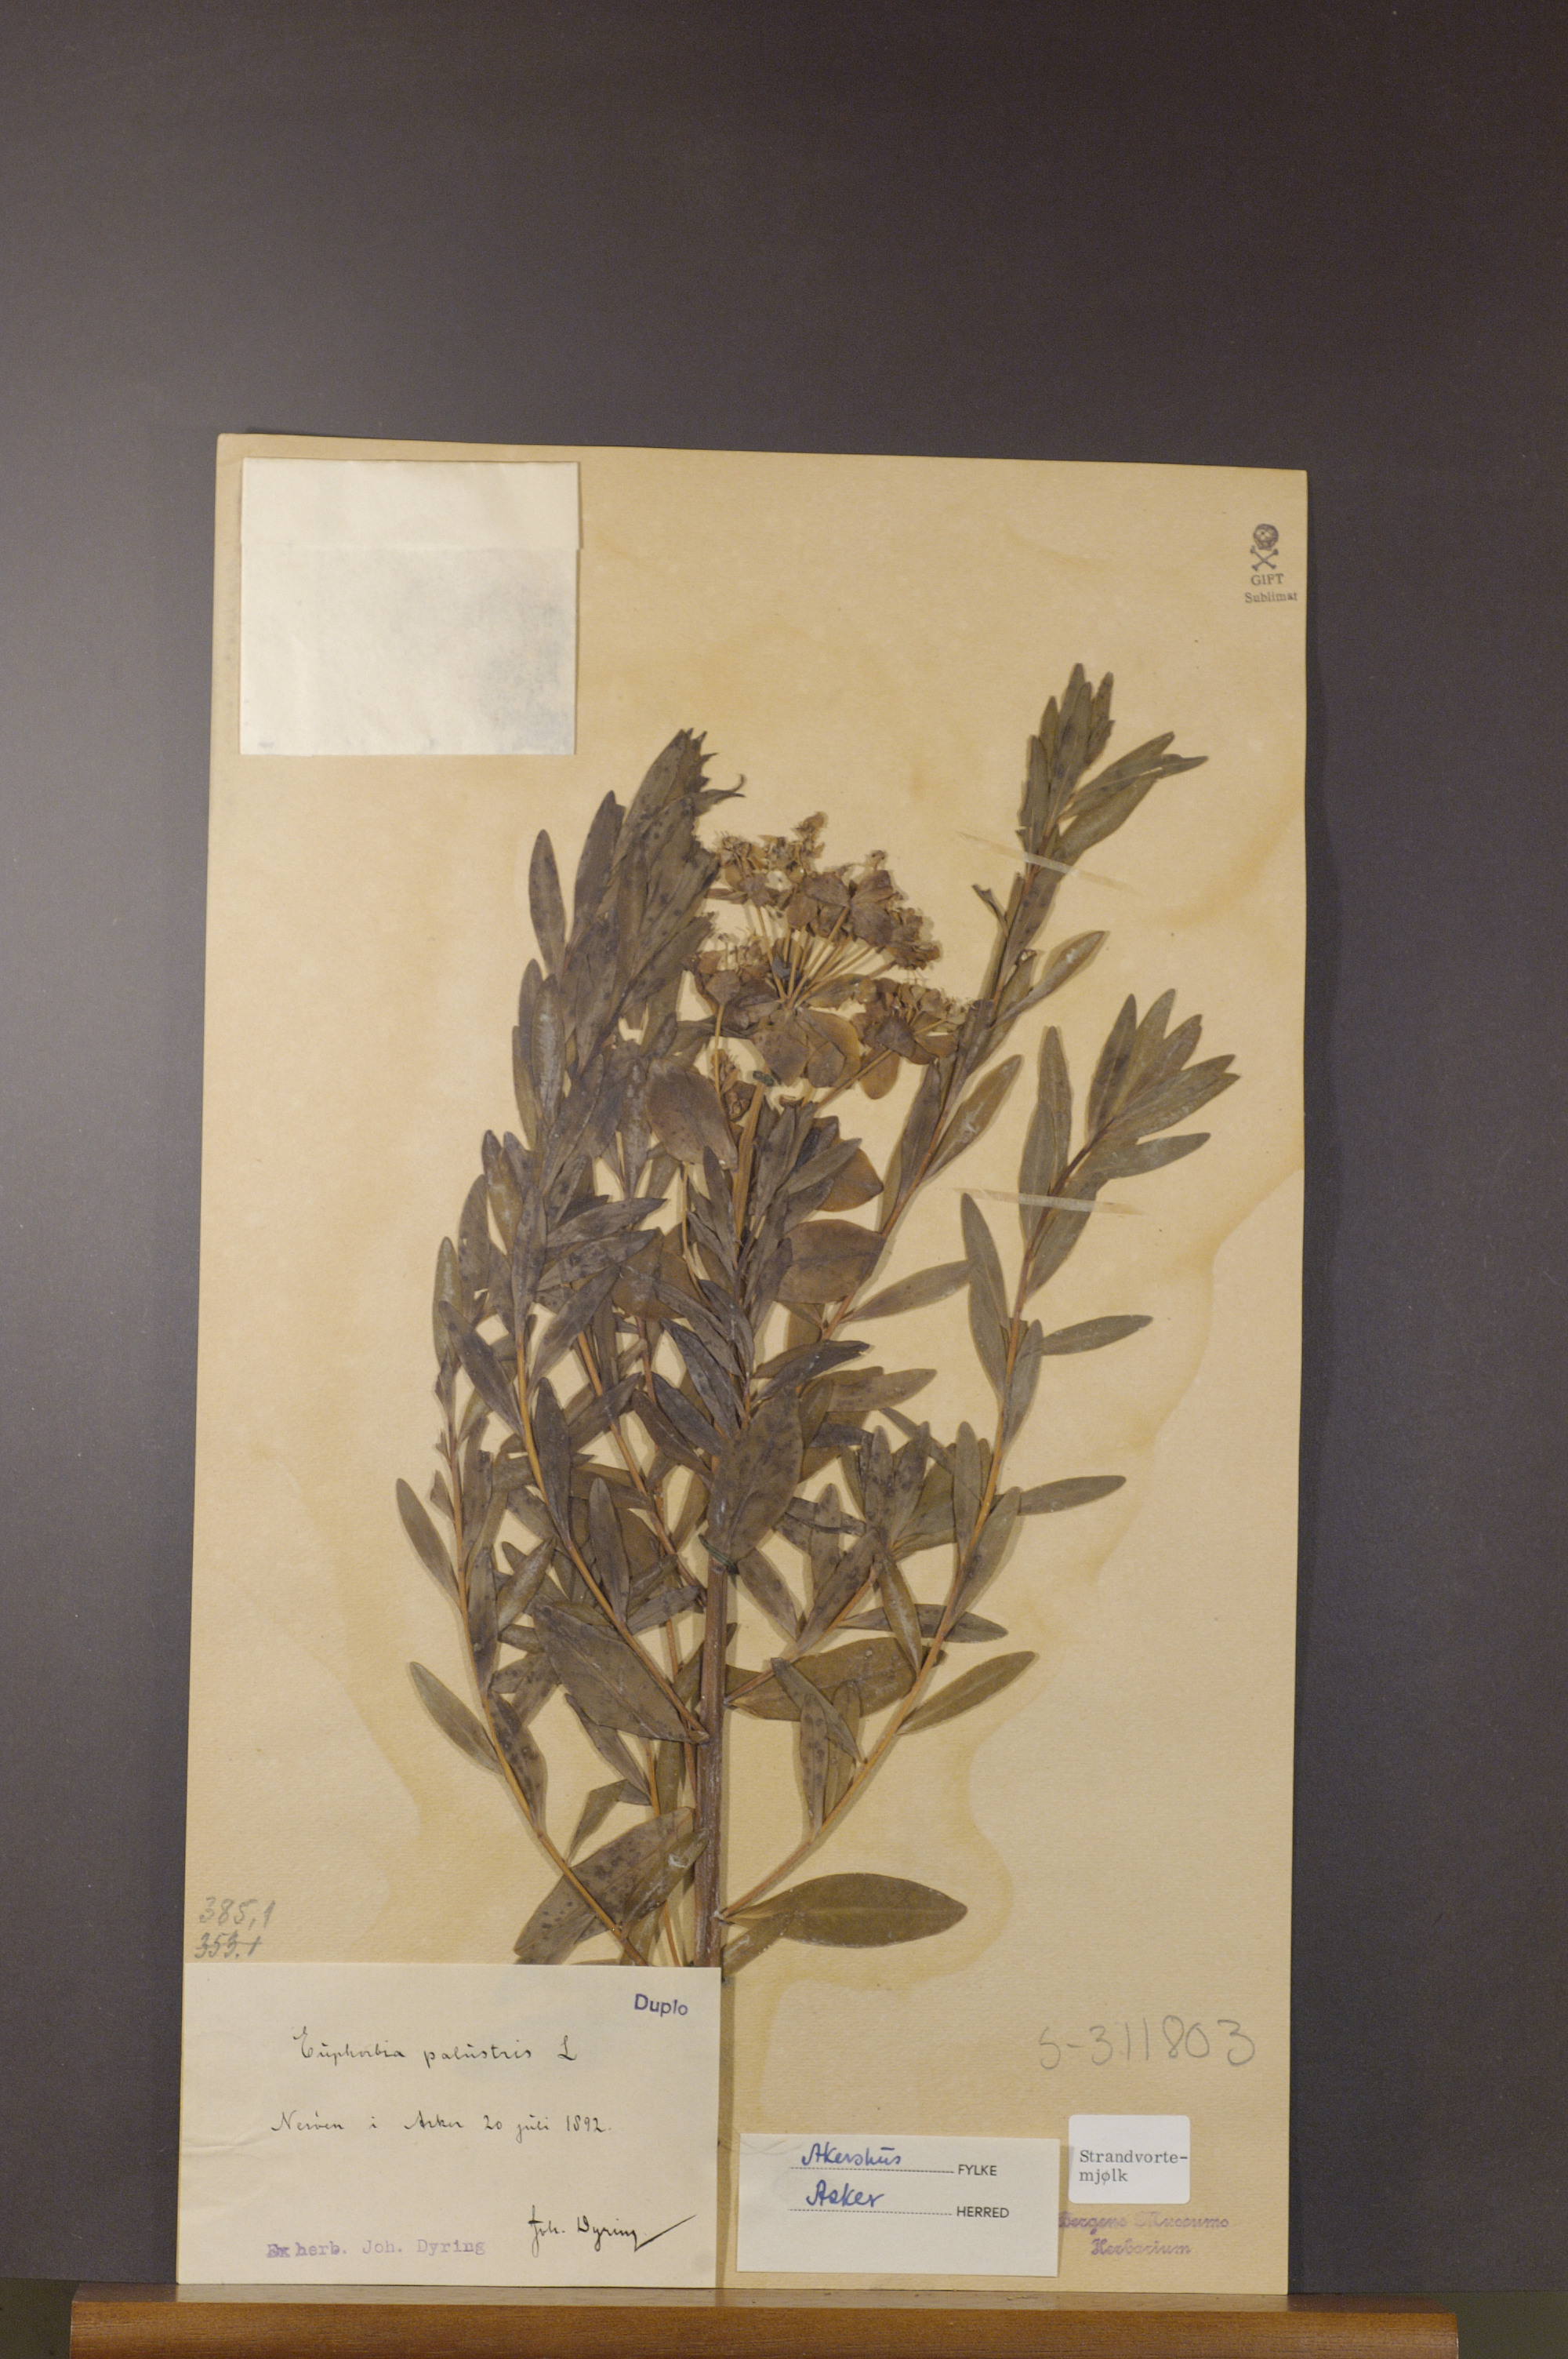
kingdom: Plantae
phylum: Tracheophyta
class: Magnoliopsida
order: Malpighiales
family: Euphorbiaceae
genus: Euphorbia
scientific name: Euphorbia palustris
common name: Marsh spurge
